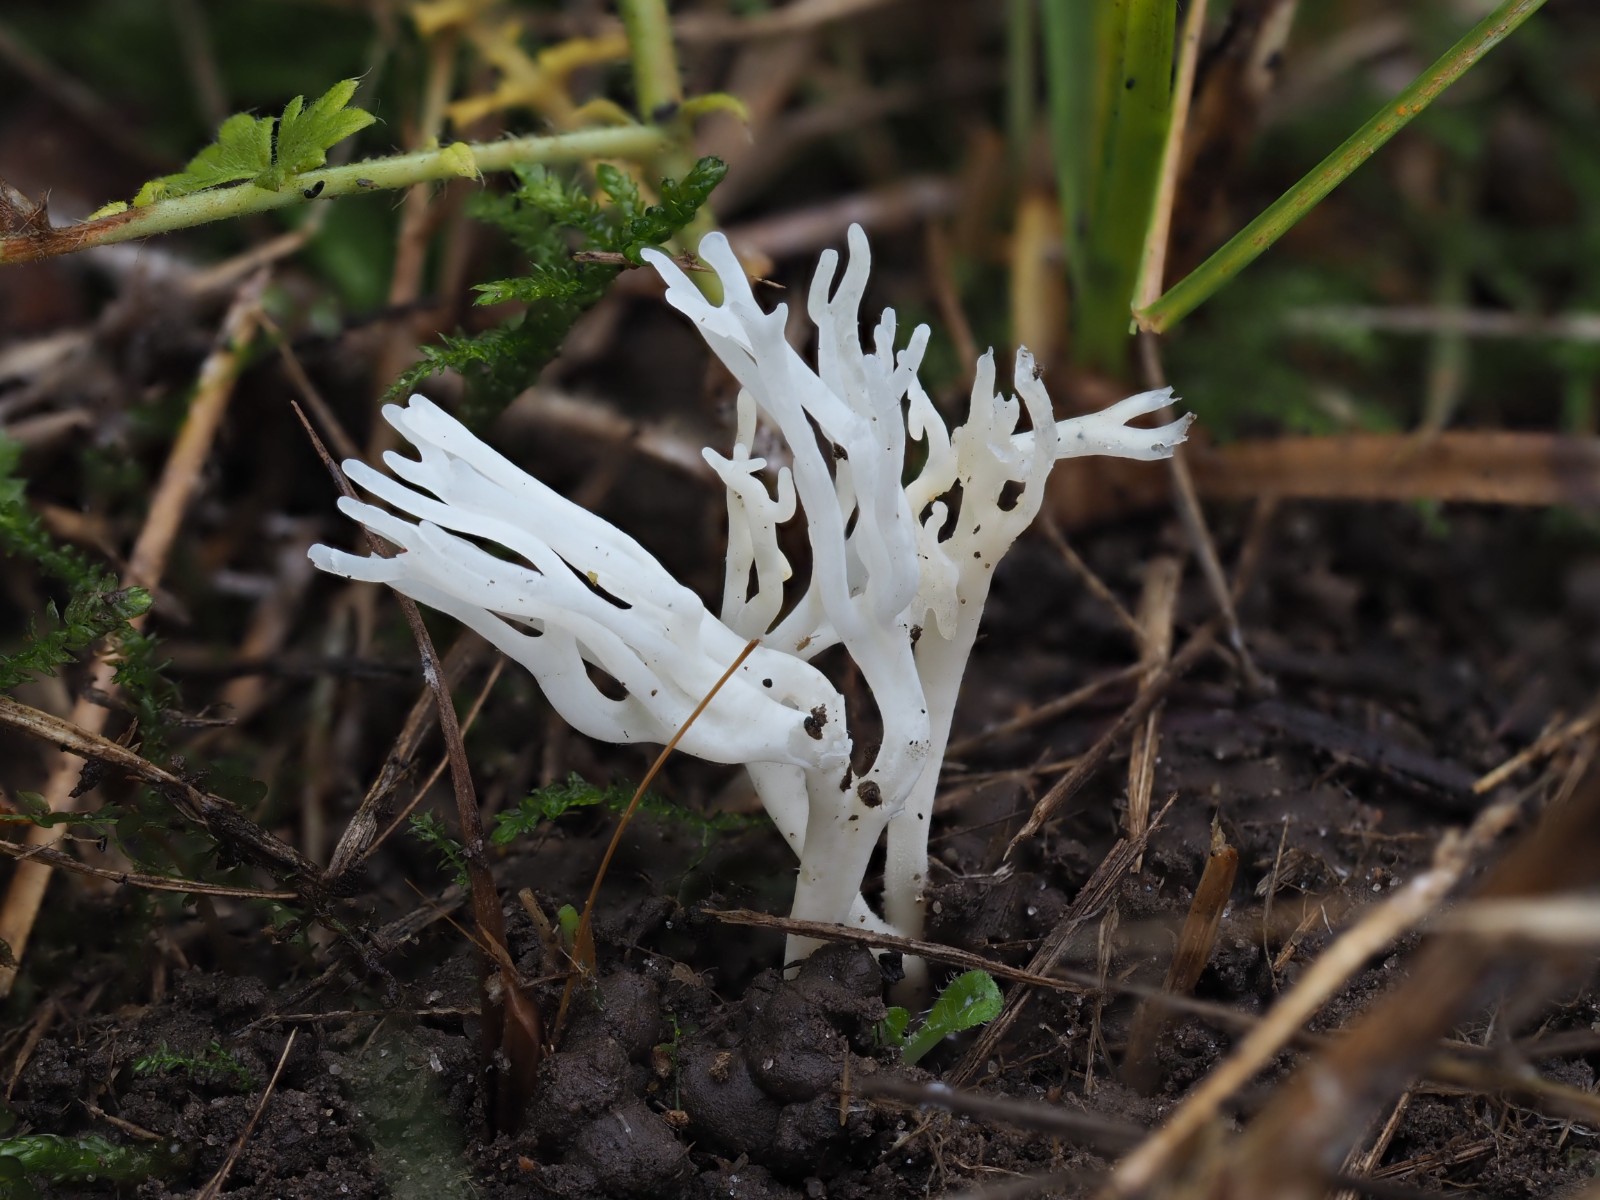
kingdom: Fungi
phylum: Basidiomycota
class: Agaricomycetes
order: Agaricales
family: Clavariaceae
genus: Ramariopsis
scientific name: Ramariopsis kunzei
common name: mangegrenet køllesvamp
